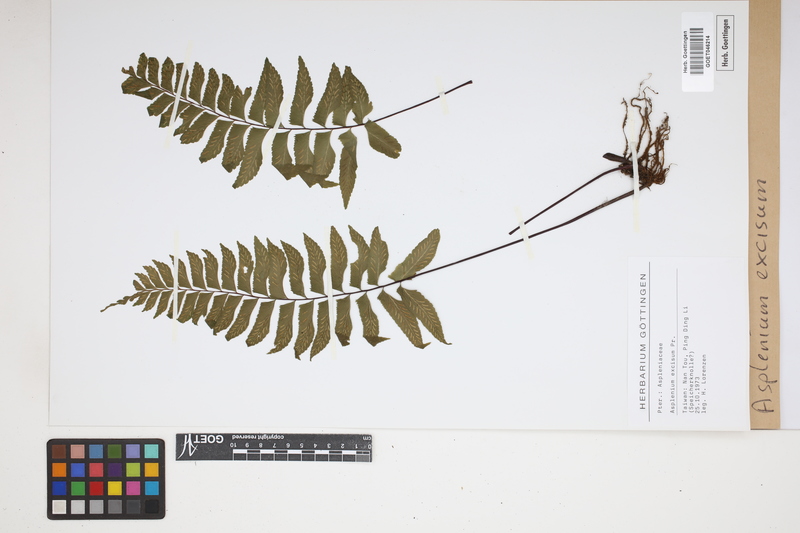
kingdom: Plantae
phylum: Tracheophyta
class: Polypodiopsida
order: Polypodiales
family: Aspleniaceae
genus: Hymenasplenium
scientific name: Hymenasplenium excisum
